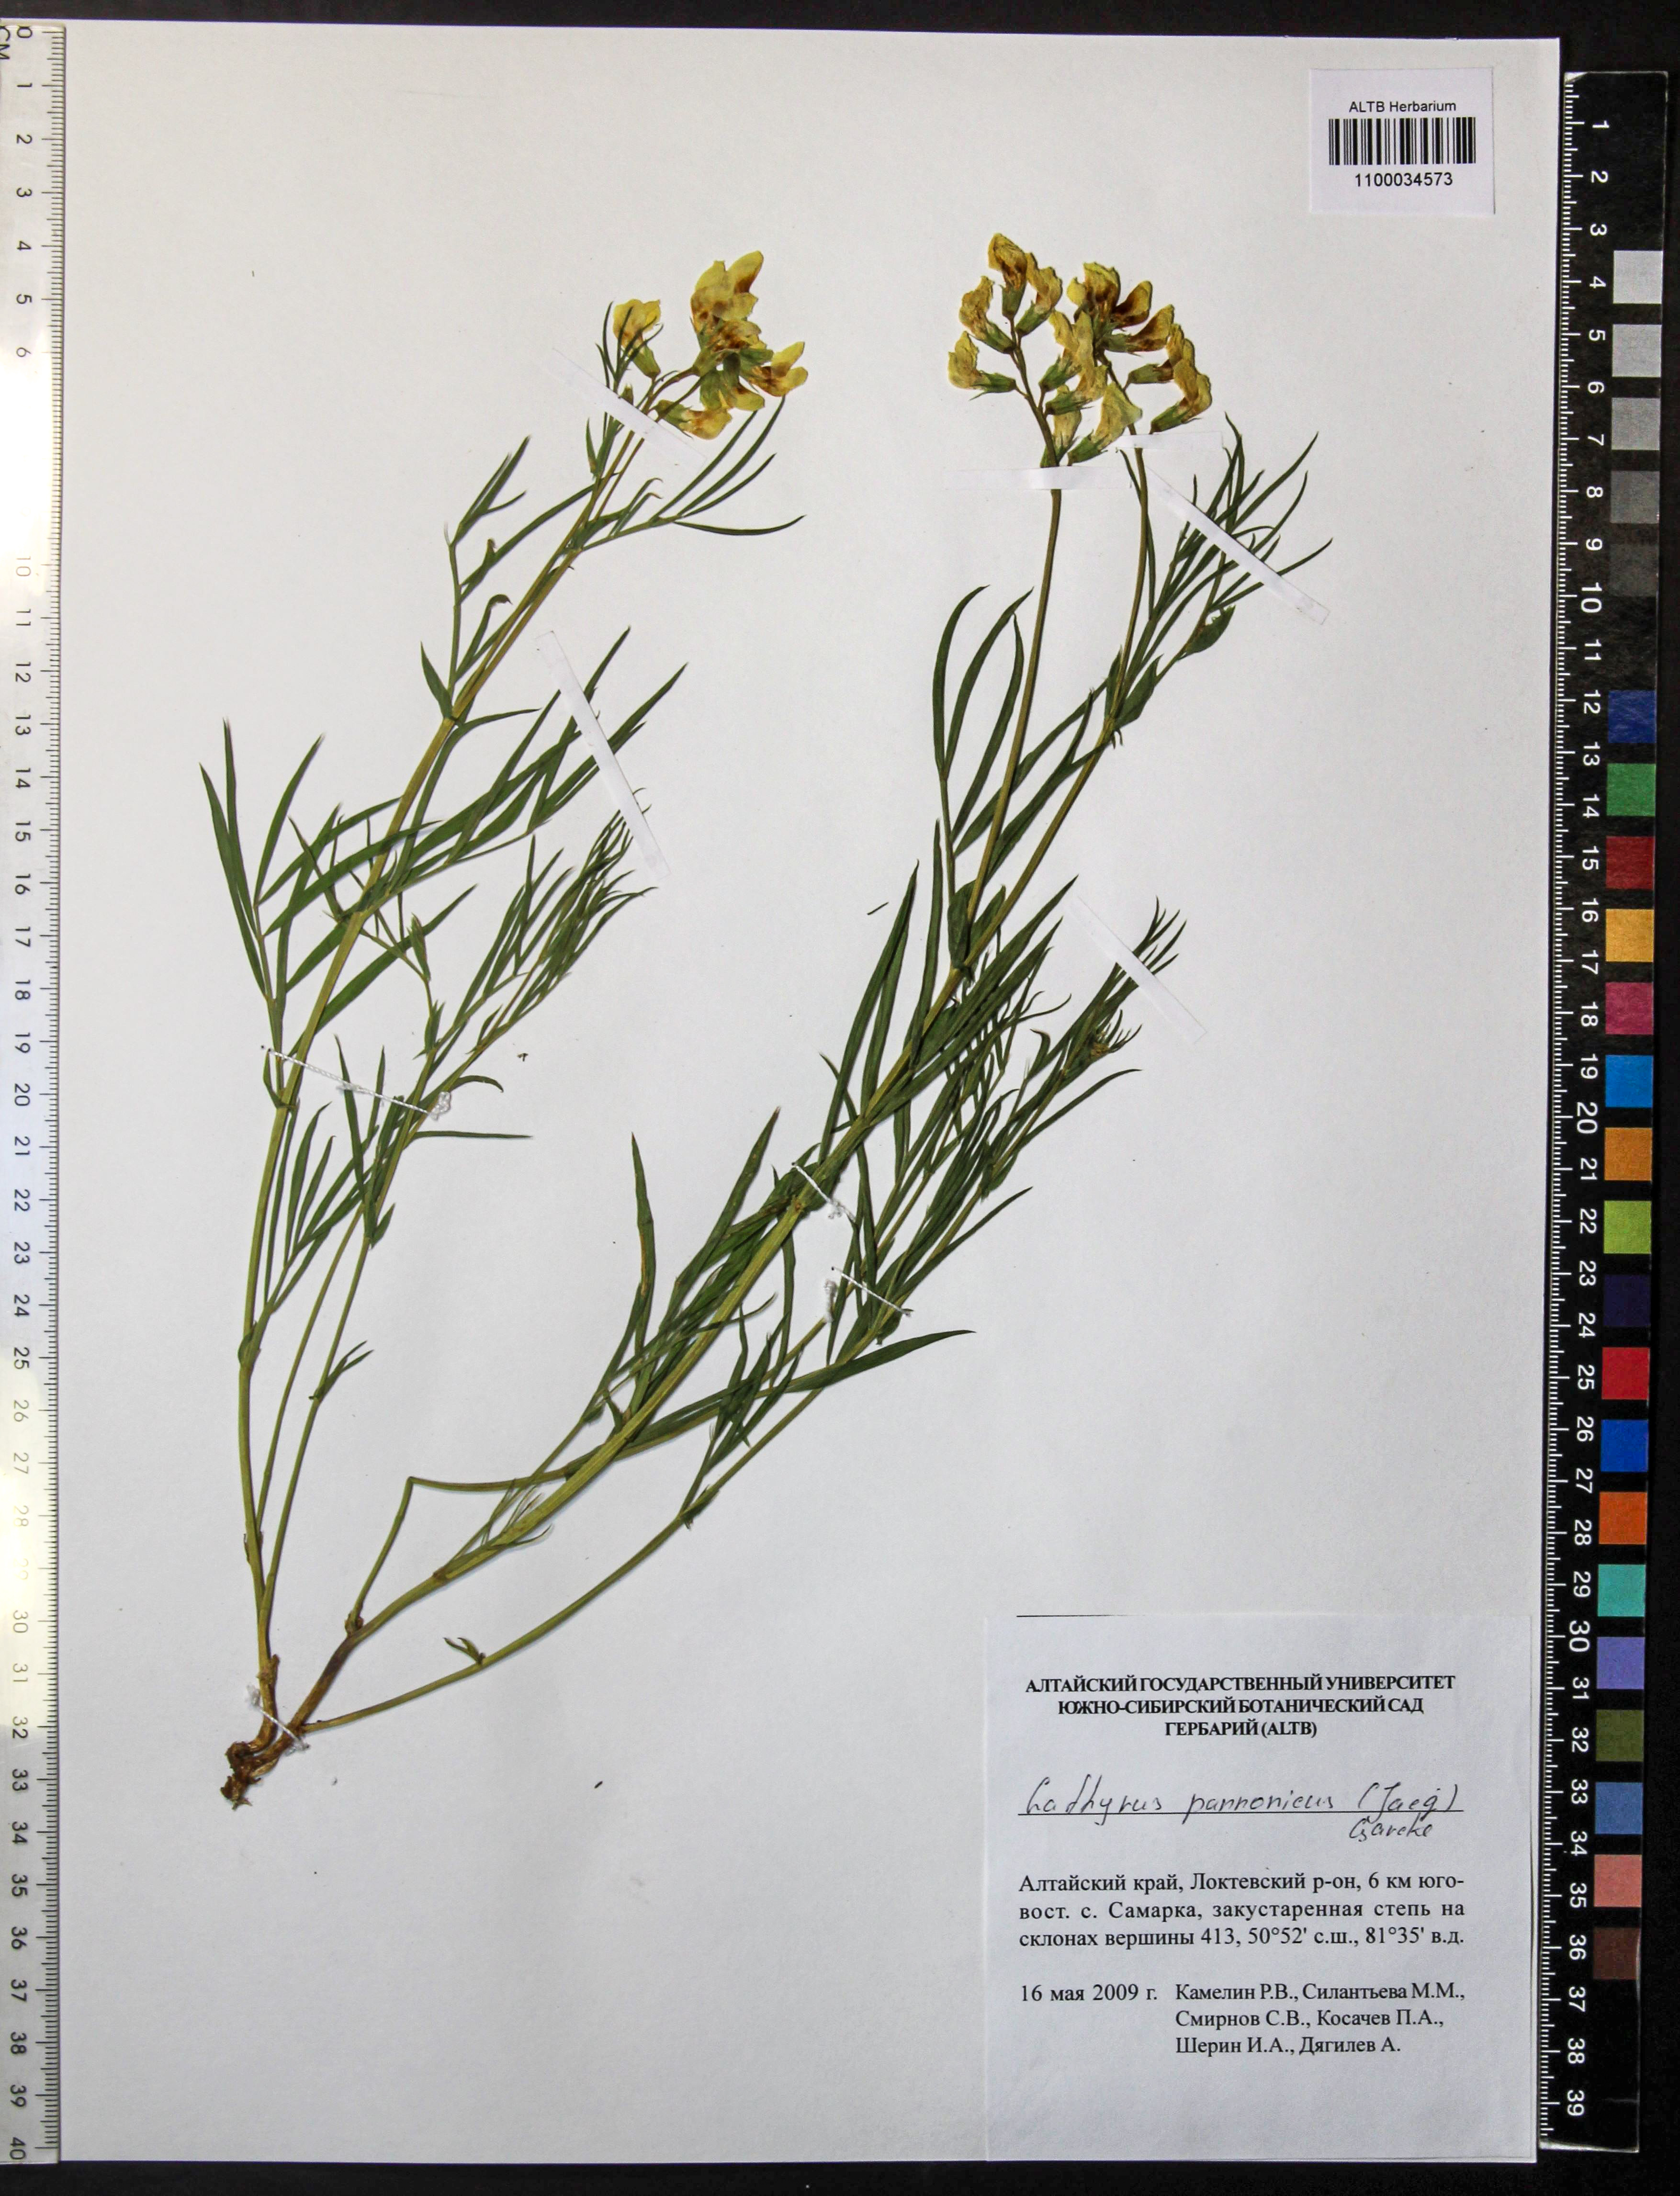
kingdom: Plantae
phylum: Tracheophyta
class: Magnoliopsida
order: Fabales
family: Fabaceae
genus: Lathyrus
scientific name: Lathyrus pannonicus
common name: Pea
